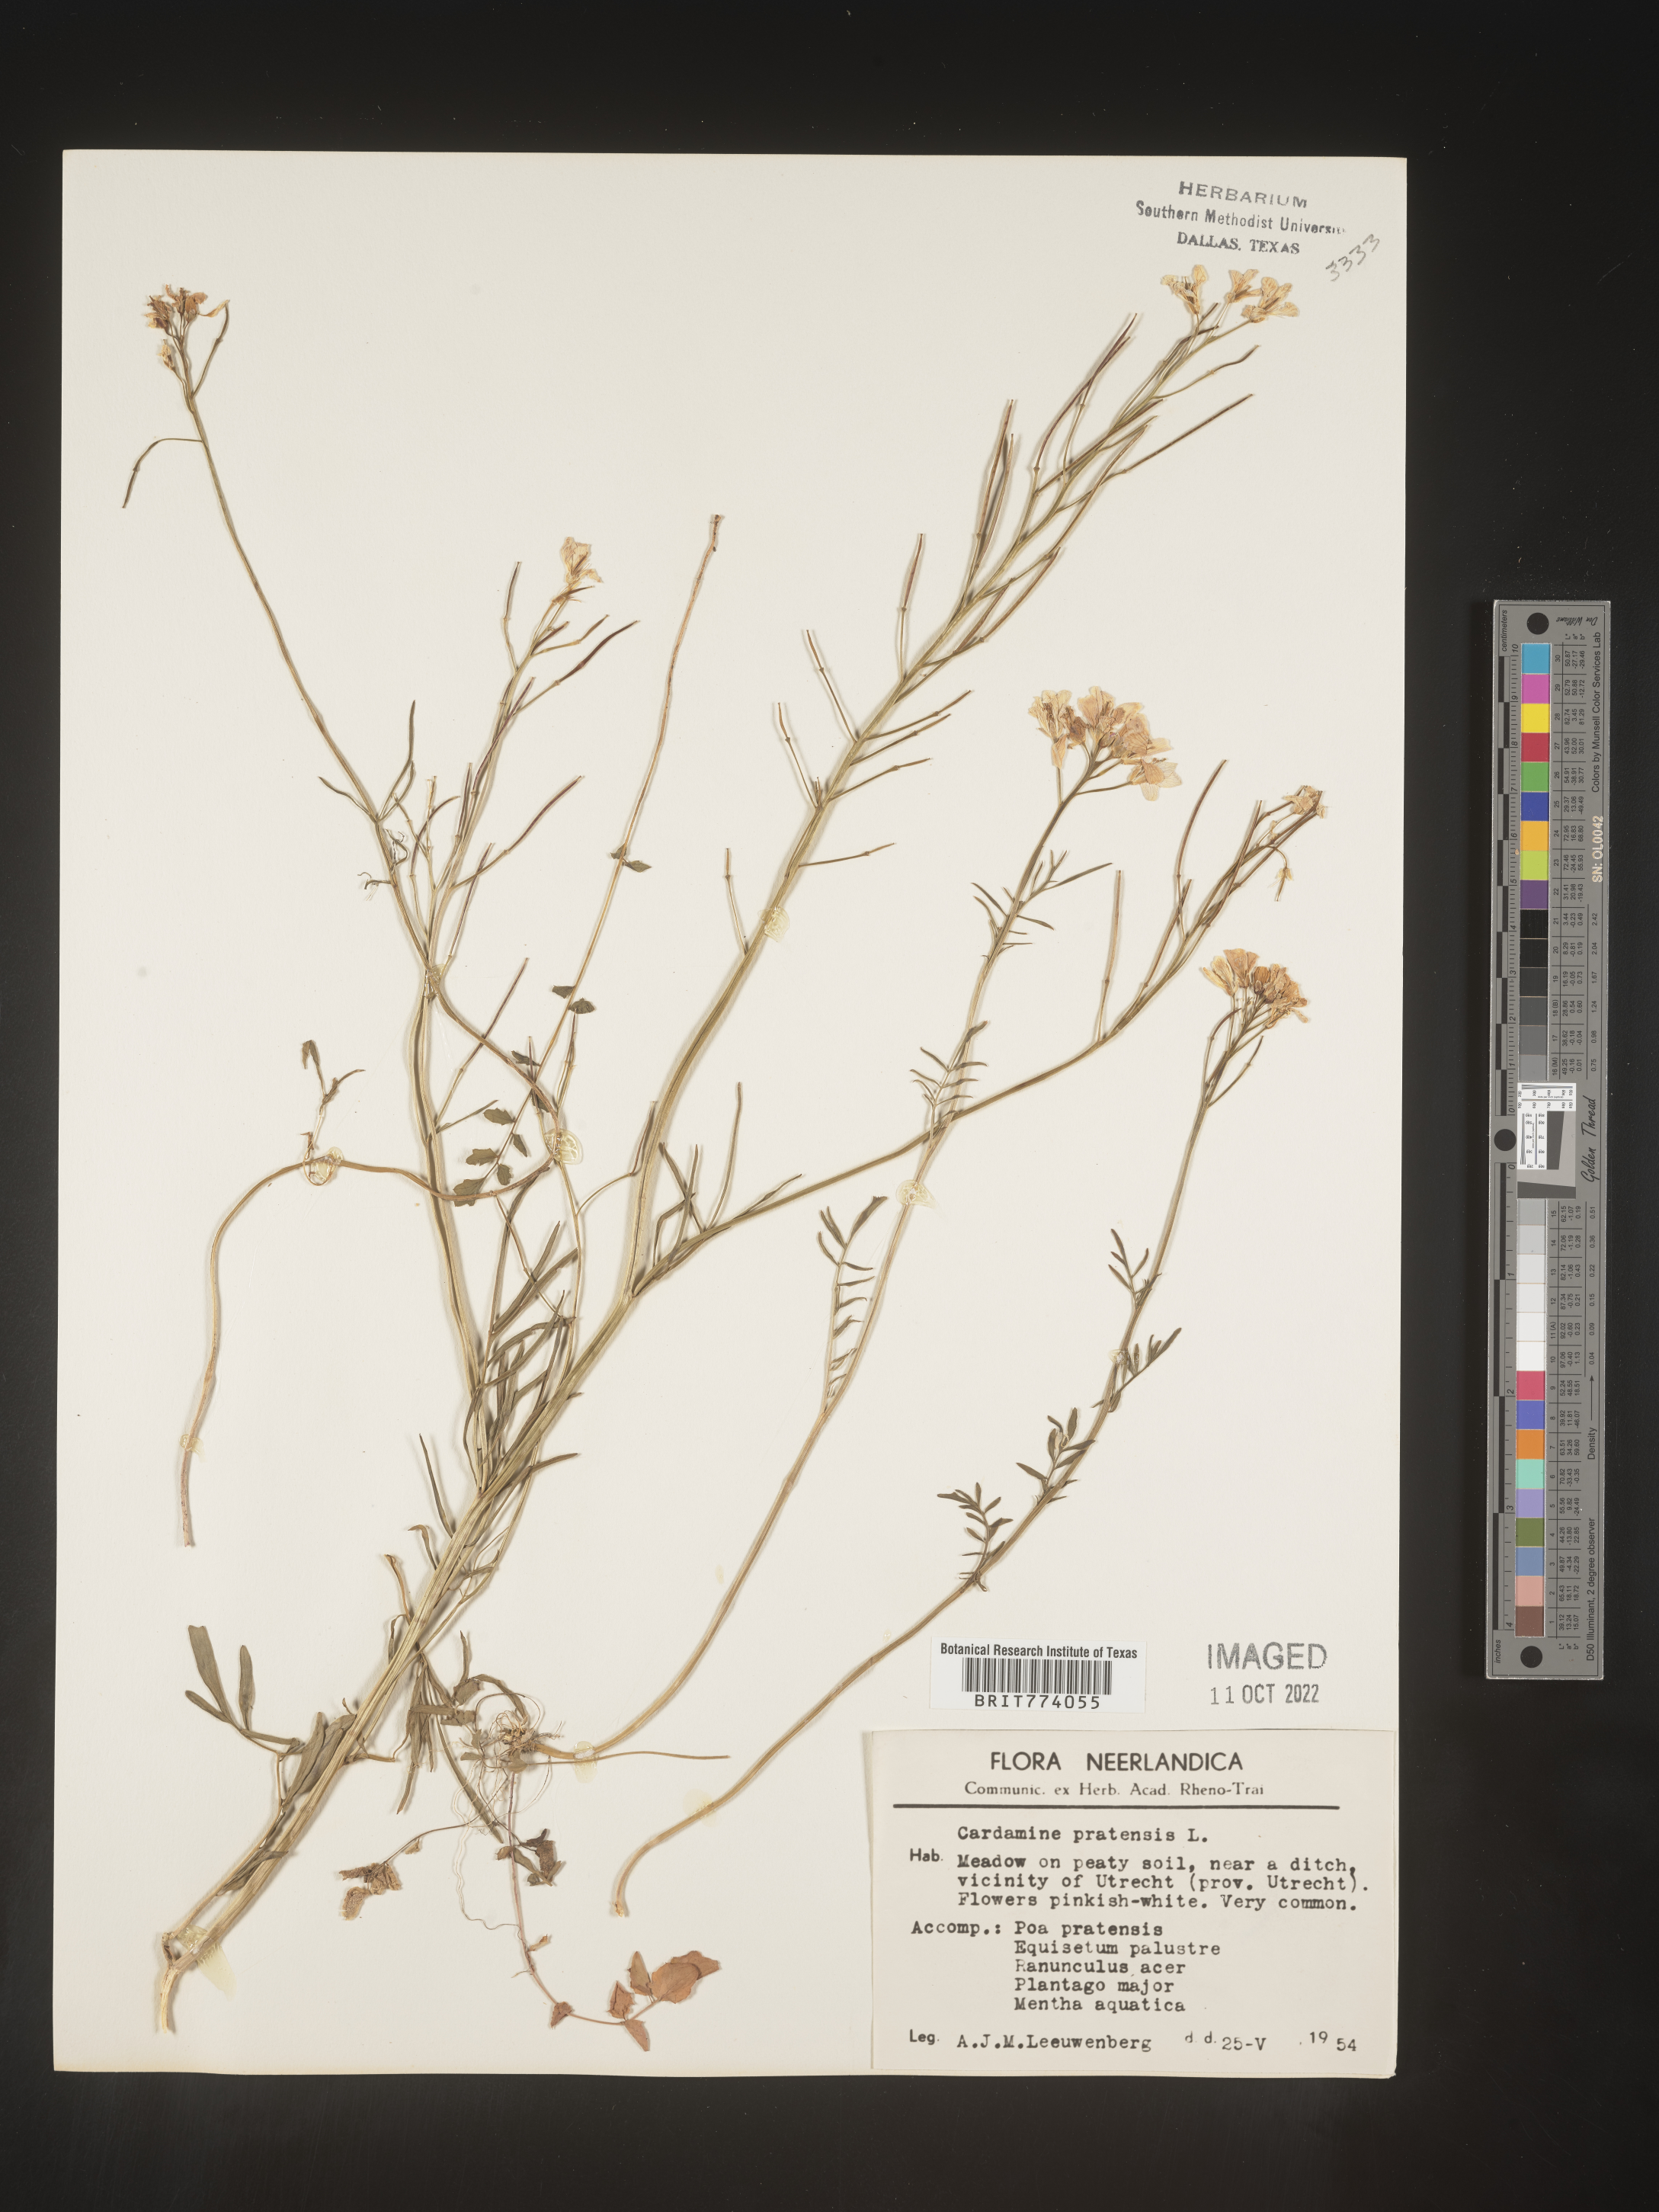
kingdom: Plantae
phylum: Tracheophyta
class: Magnoliopsida
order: Brassicales
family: Brassicaceae
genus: Cardamine
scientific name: Cardamine pratensis
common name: Cuckoo flower
